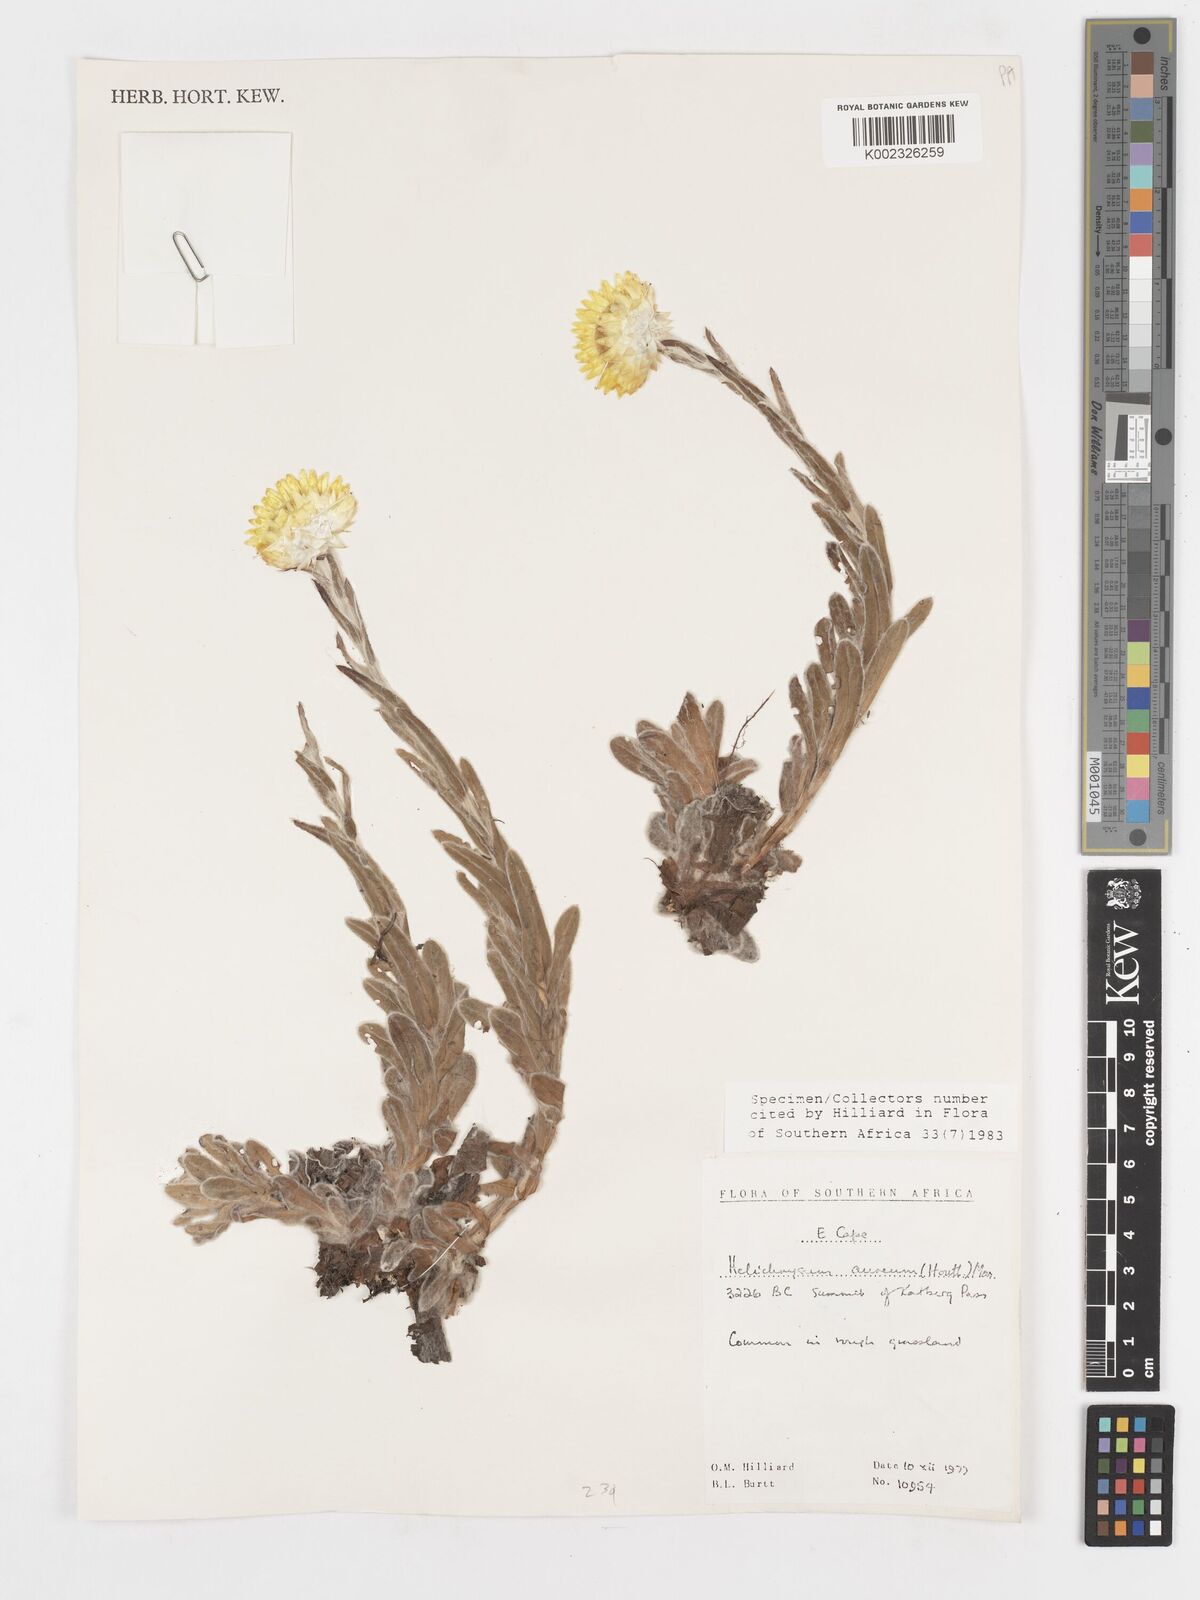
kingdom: Plantae
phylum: Tracheophyta
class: Magnoliopsida
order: Asterales
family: Asteraceae
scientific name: Asteraceae
